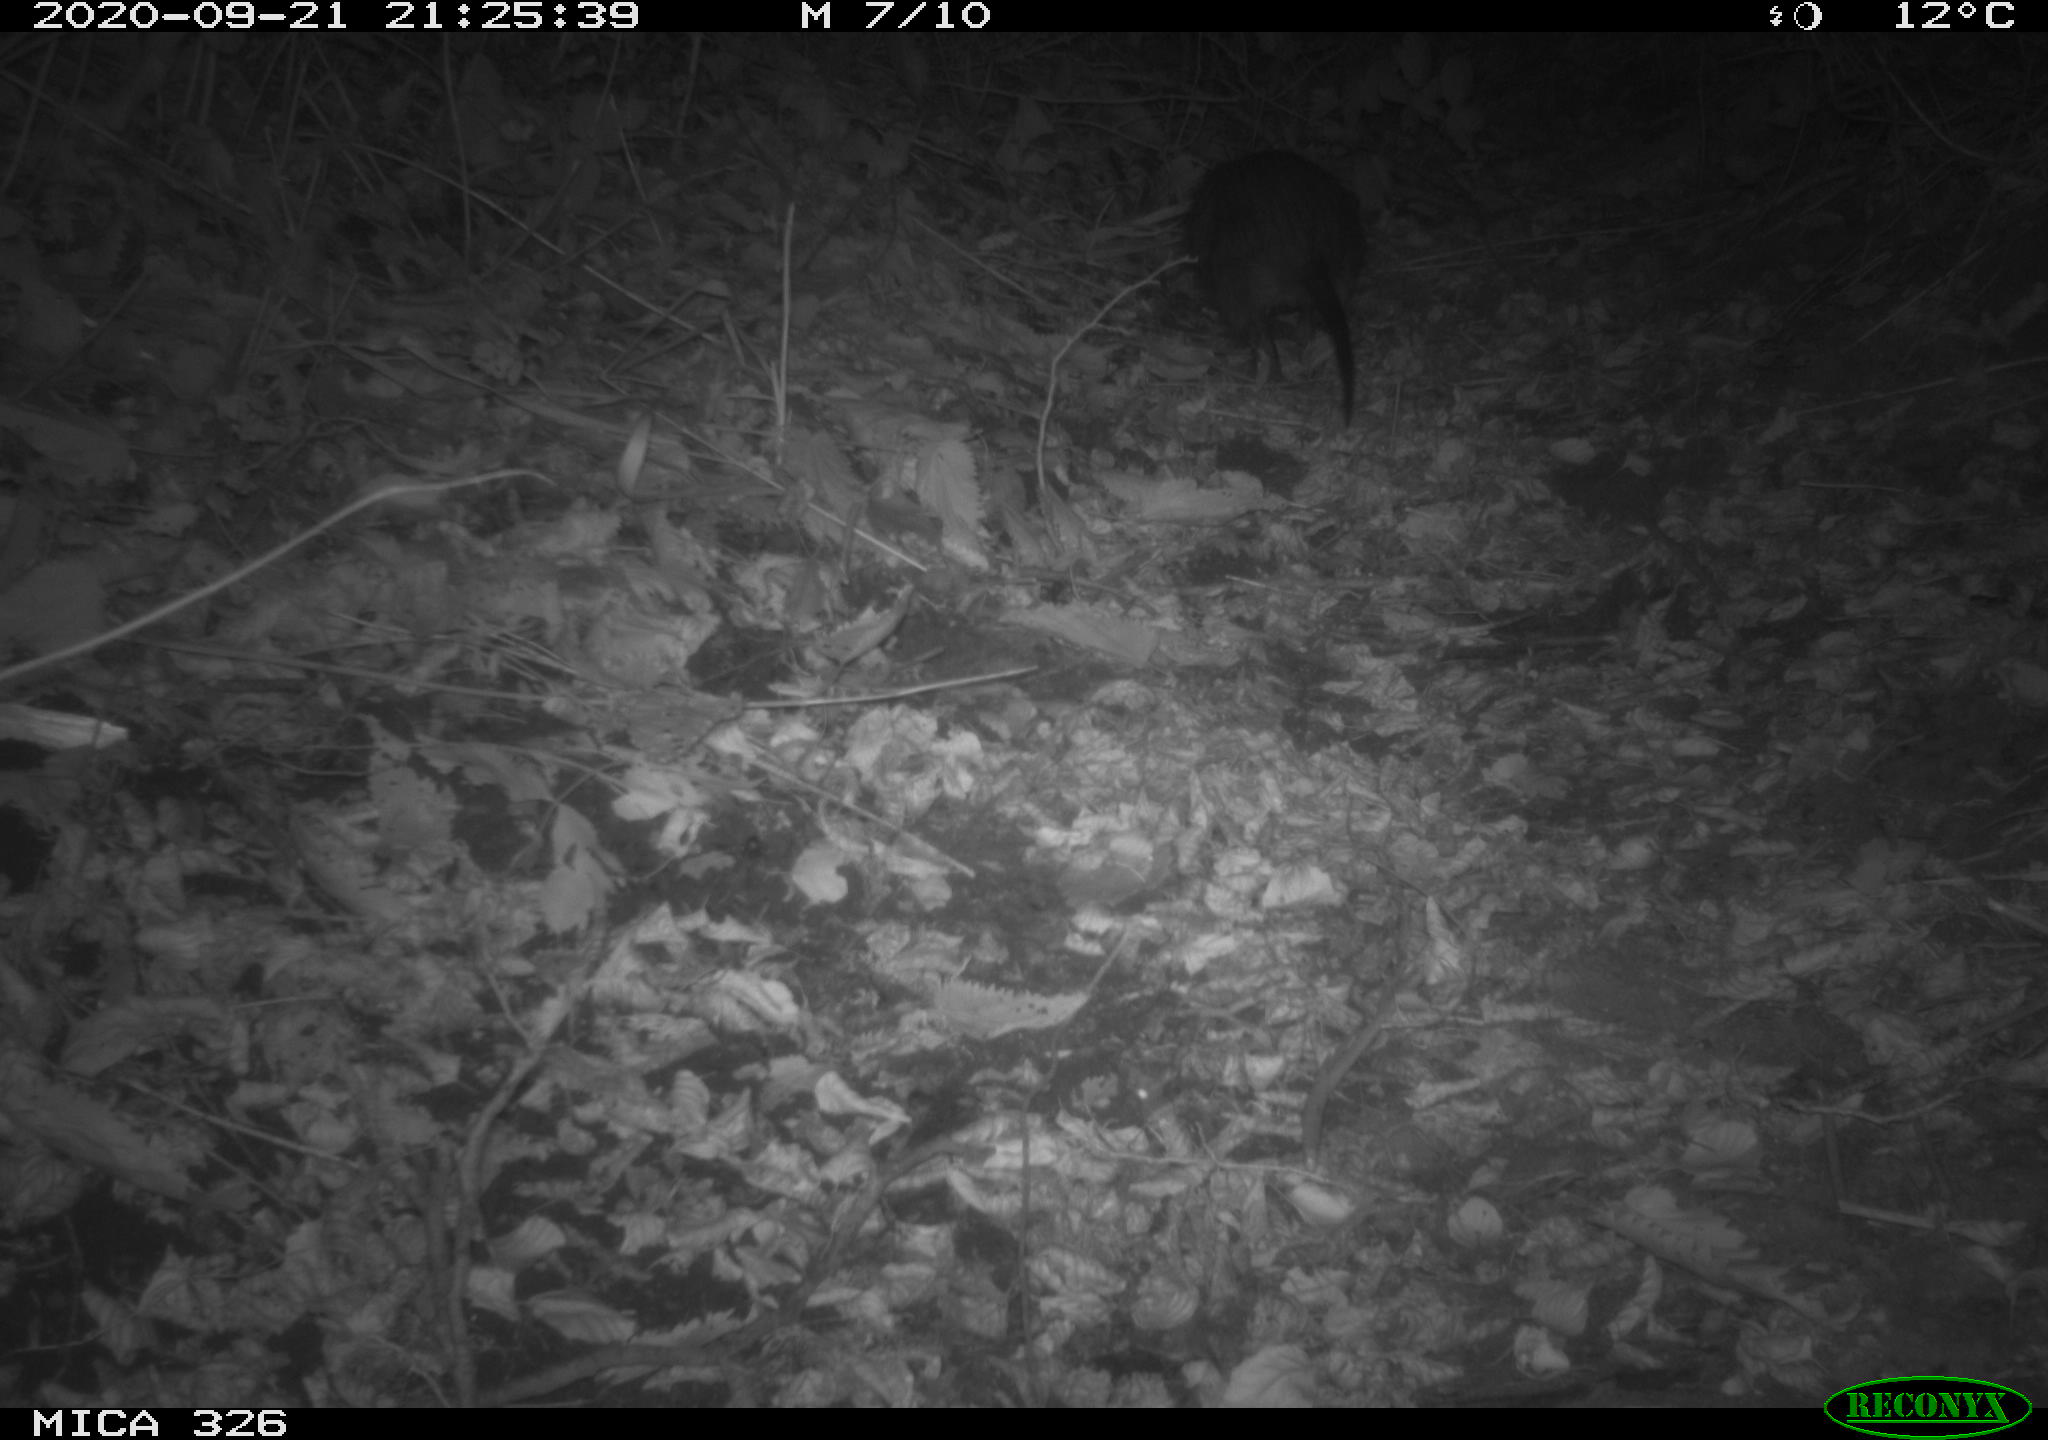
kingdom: Animalia
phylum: Chordata
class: Mammalia
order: Rodentia
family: Myocastoridae
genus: Myocastor
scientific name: Myocastor coypus
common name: Coypu
